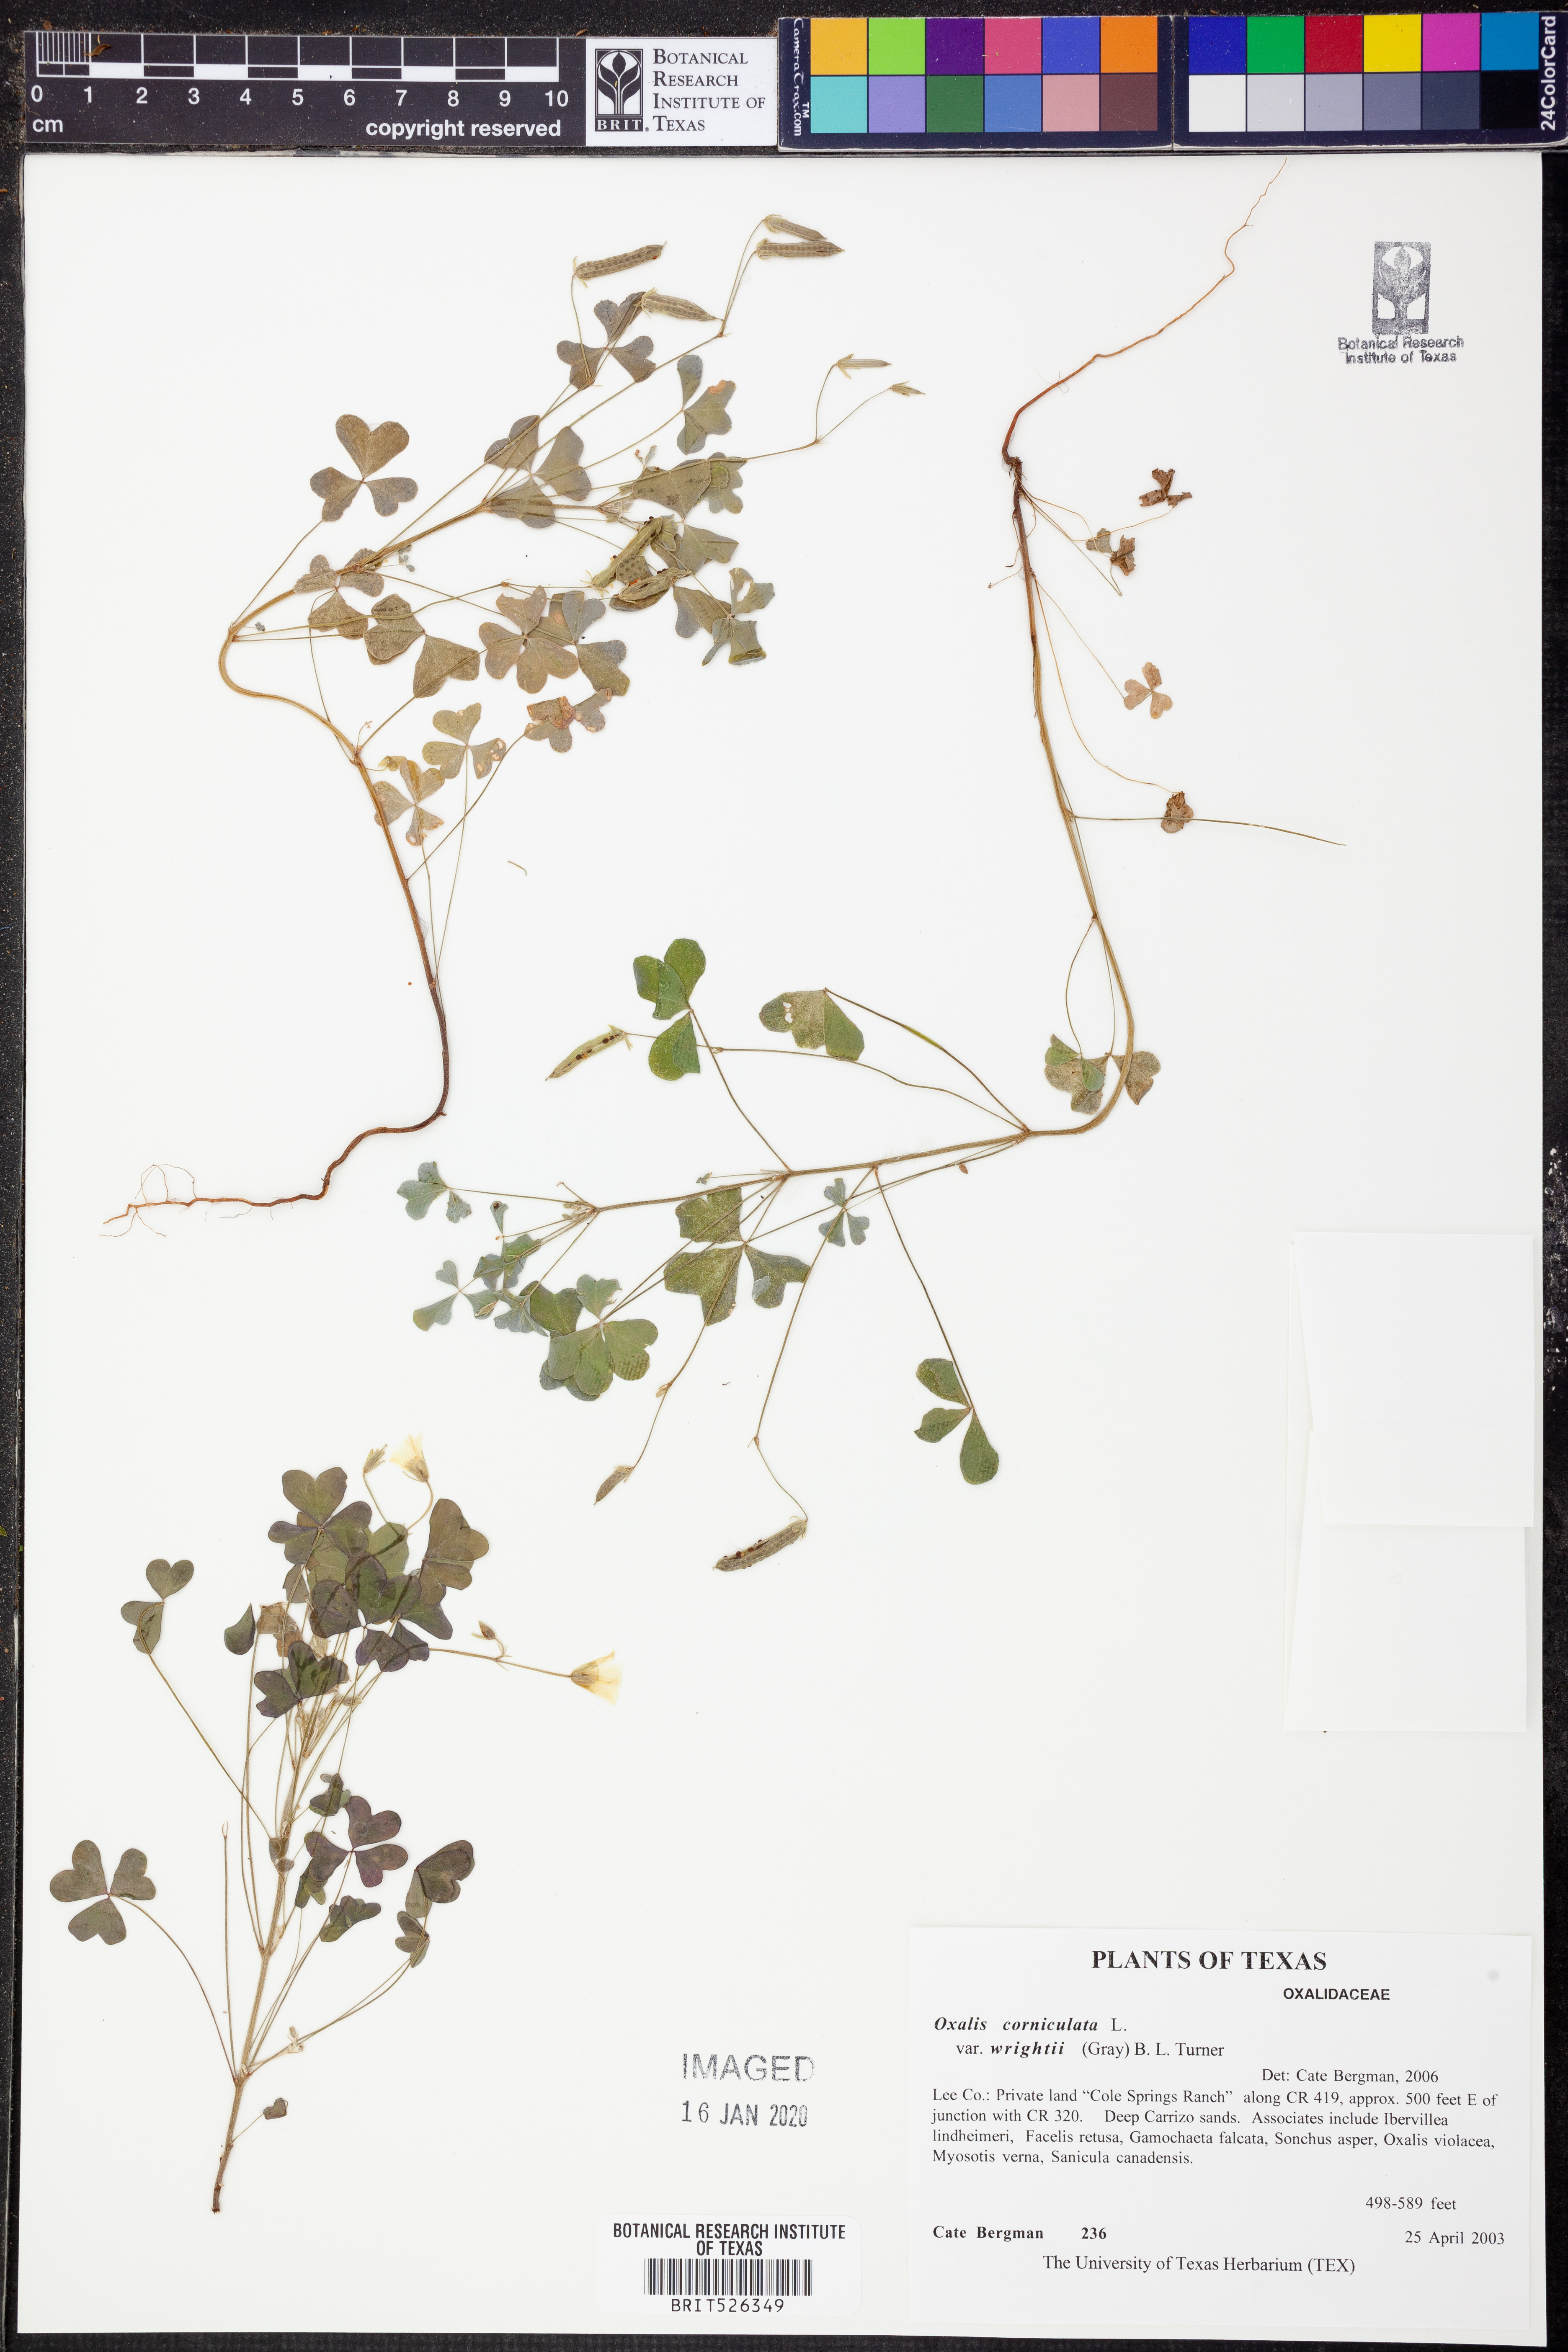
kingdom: Plantae
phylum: Tracheophyta
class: Magnoliopsida
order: Oxalidales
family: Oxalidaceae
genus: Oxalis
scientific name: Oxalis albicans
